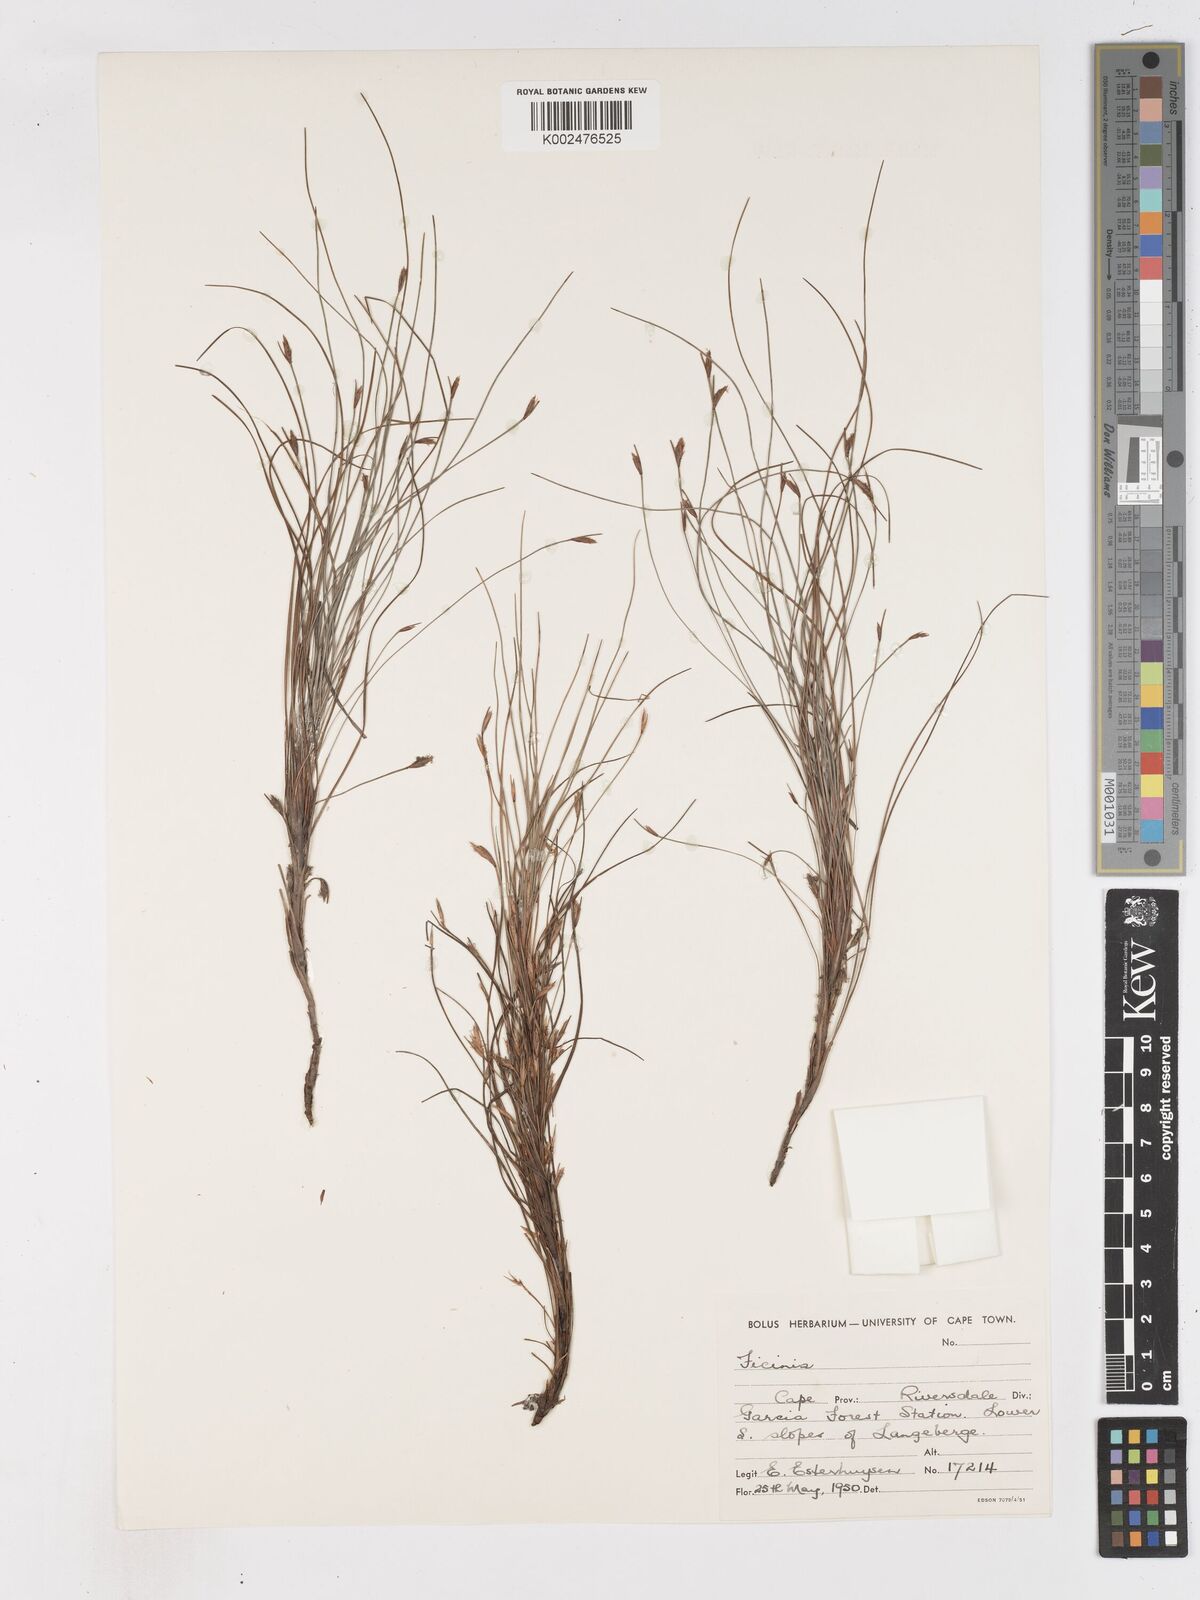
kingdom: Plantae
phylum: Tracheophyta
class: Liliopsida
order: Poales
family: Cyperaceae
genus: Ficinia
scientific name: Ficinia acuminata
